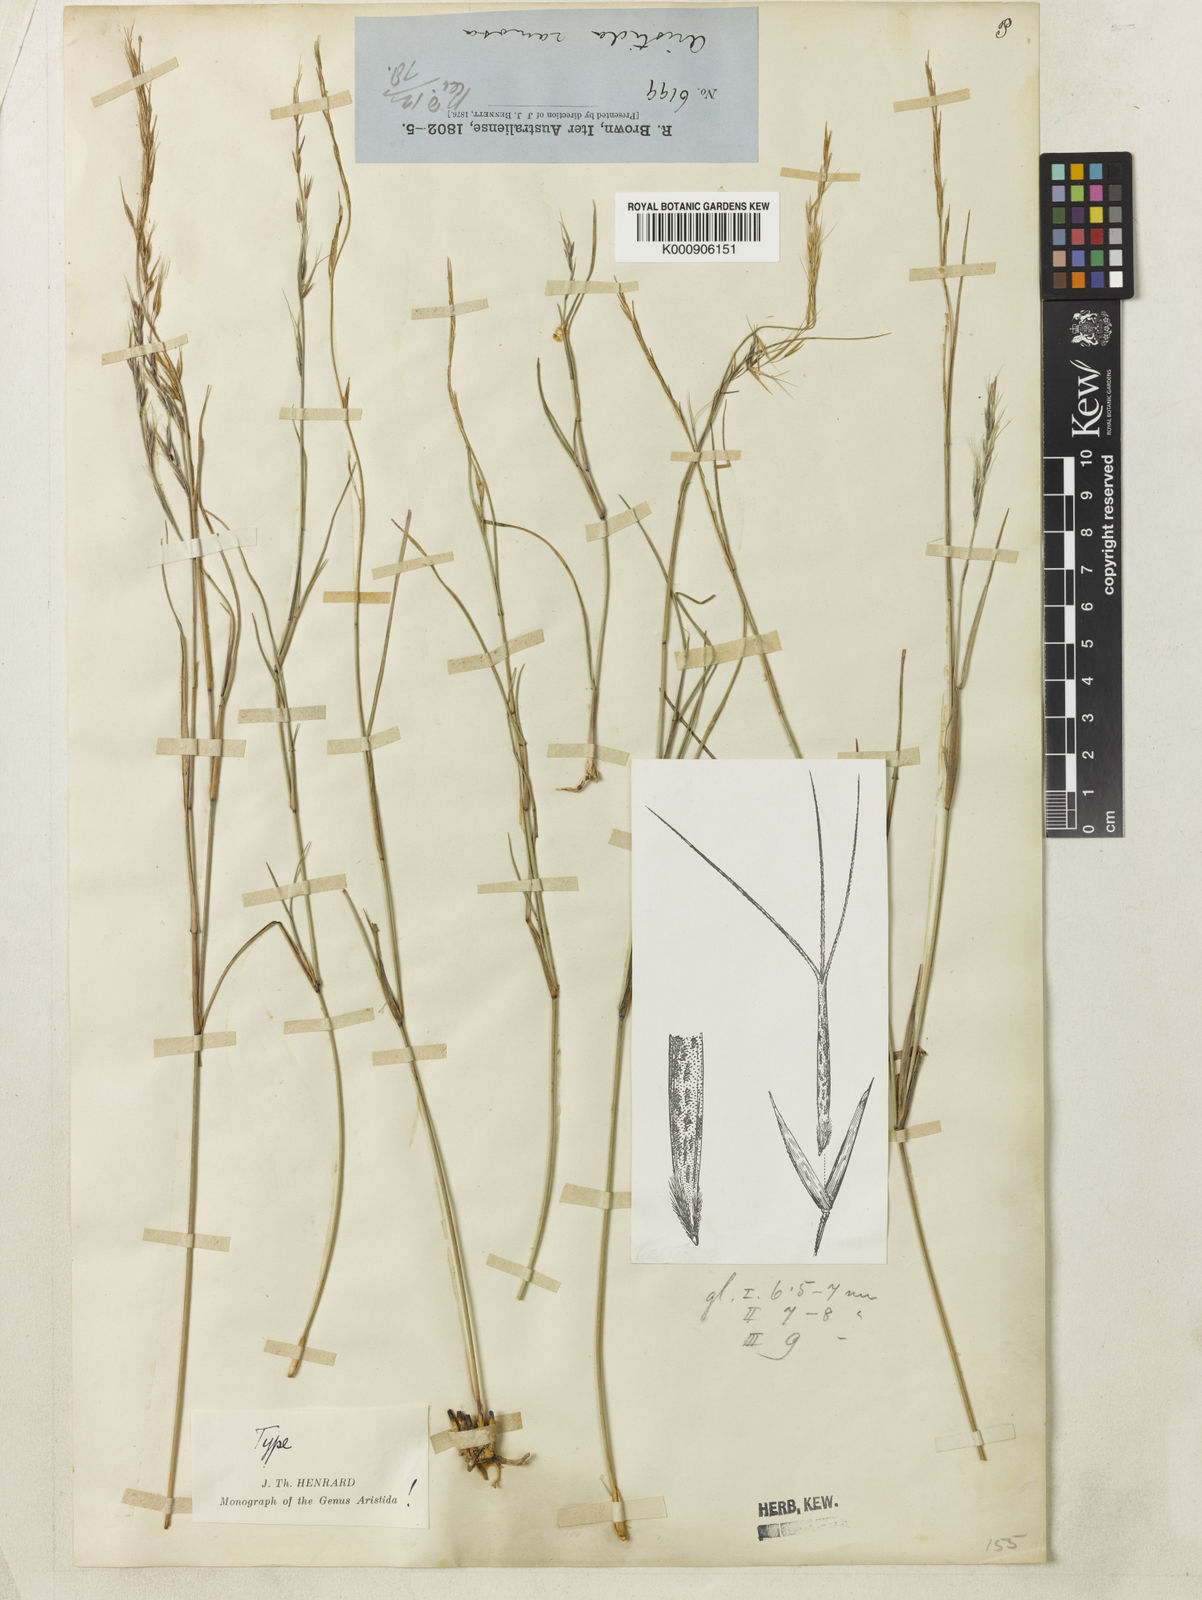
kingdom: Plantae
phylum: Tracheophyta
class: Liliopsida
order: Poales
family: Poaceae
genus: Aristida
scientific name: Aristida ramosa
